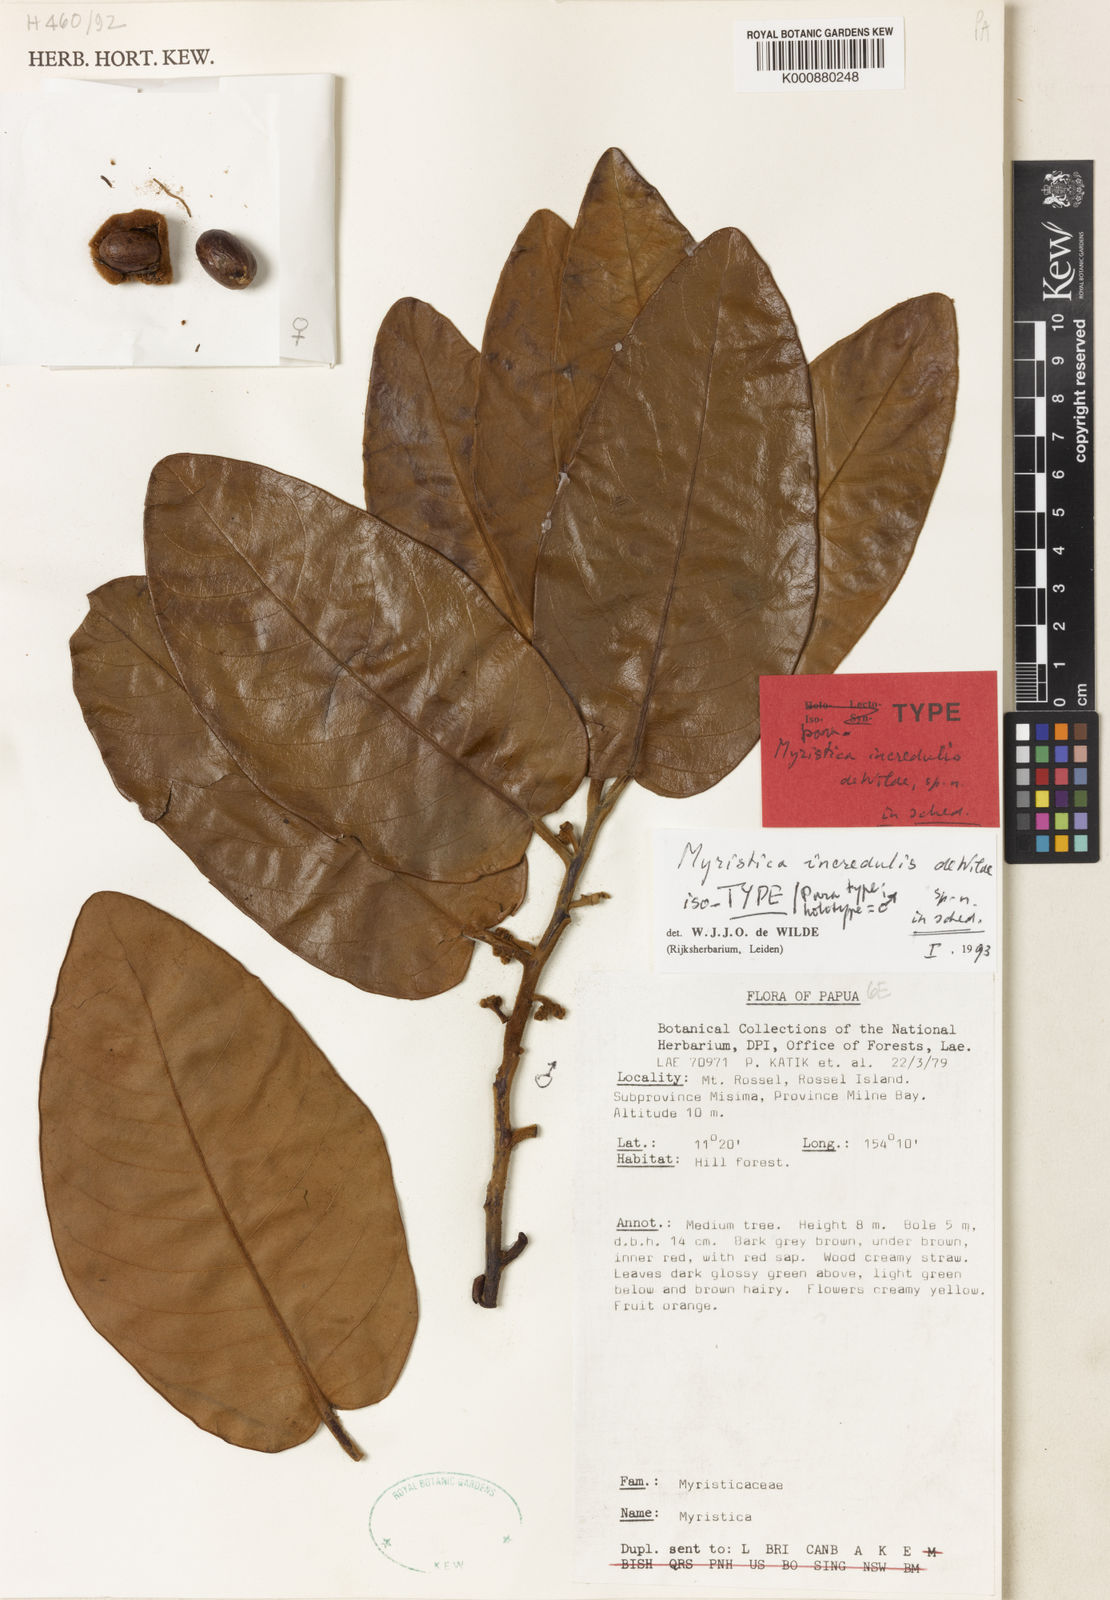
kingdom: Plantae
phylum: Tracheophyta
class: Magnoliopsida
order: Magnoliales
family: Myristicaceae
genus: Myristica
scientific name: Myristica incredibilis
